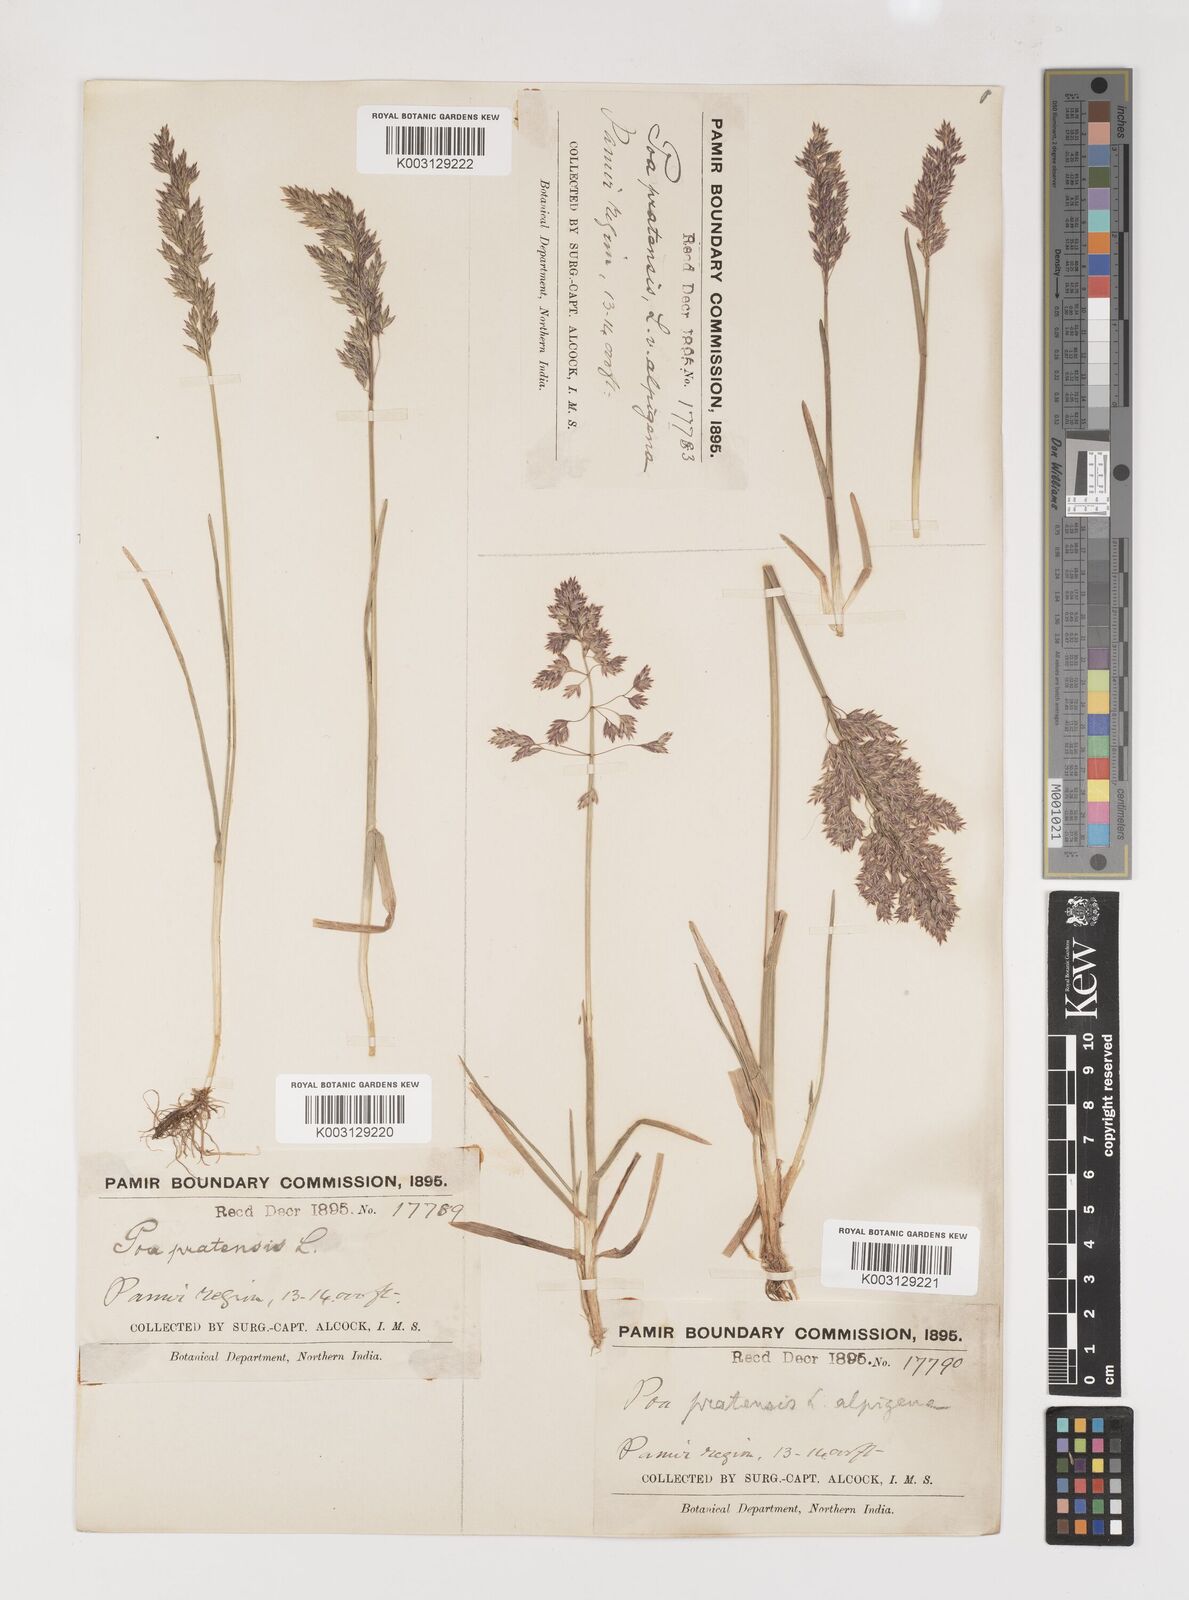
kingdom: Plantae
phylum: Tracheophyta
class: Liliopsida
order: Poales
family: Poaceae
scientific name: Poaceae
